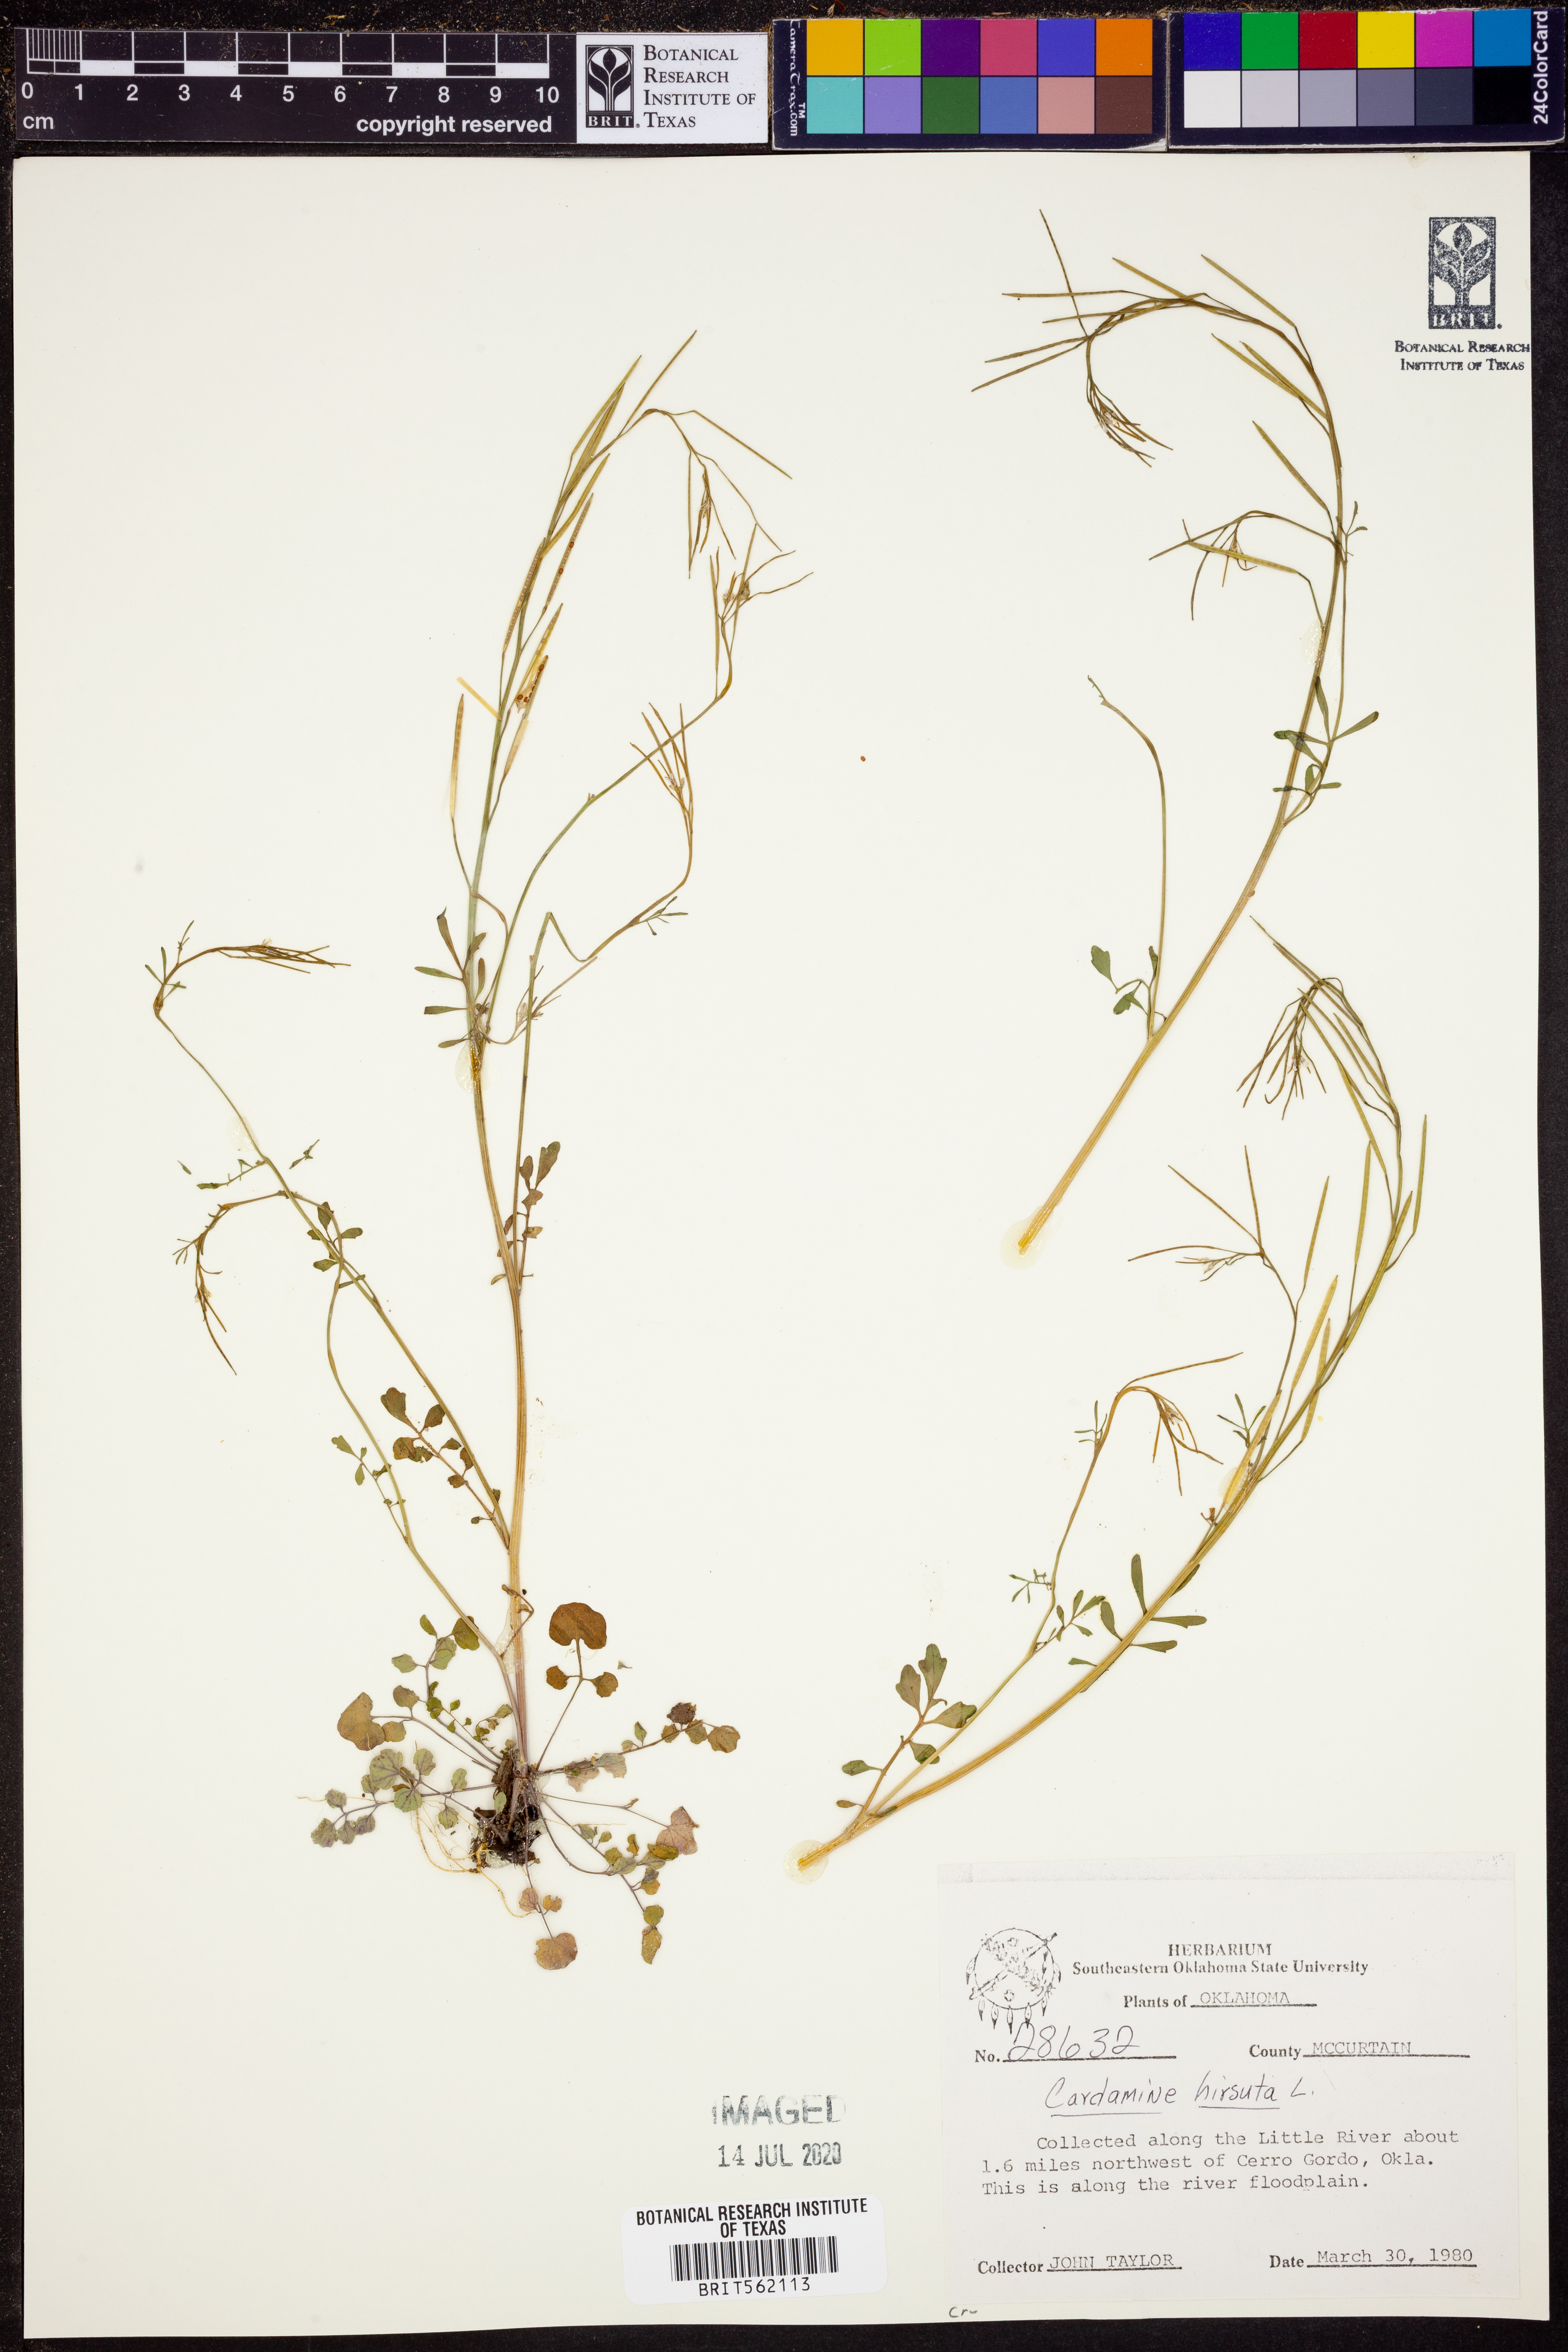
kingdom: Plantae
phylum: Tracheophyta
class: Magnoliopsida
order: Brassicales
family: Brassicaceae
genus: Cardamine
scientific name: Cardamine hirsuta
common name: Hairy bittercress
